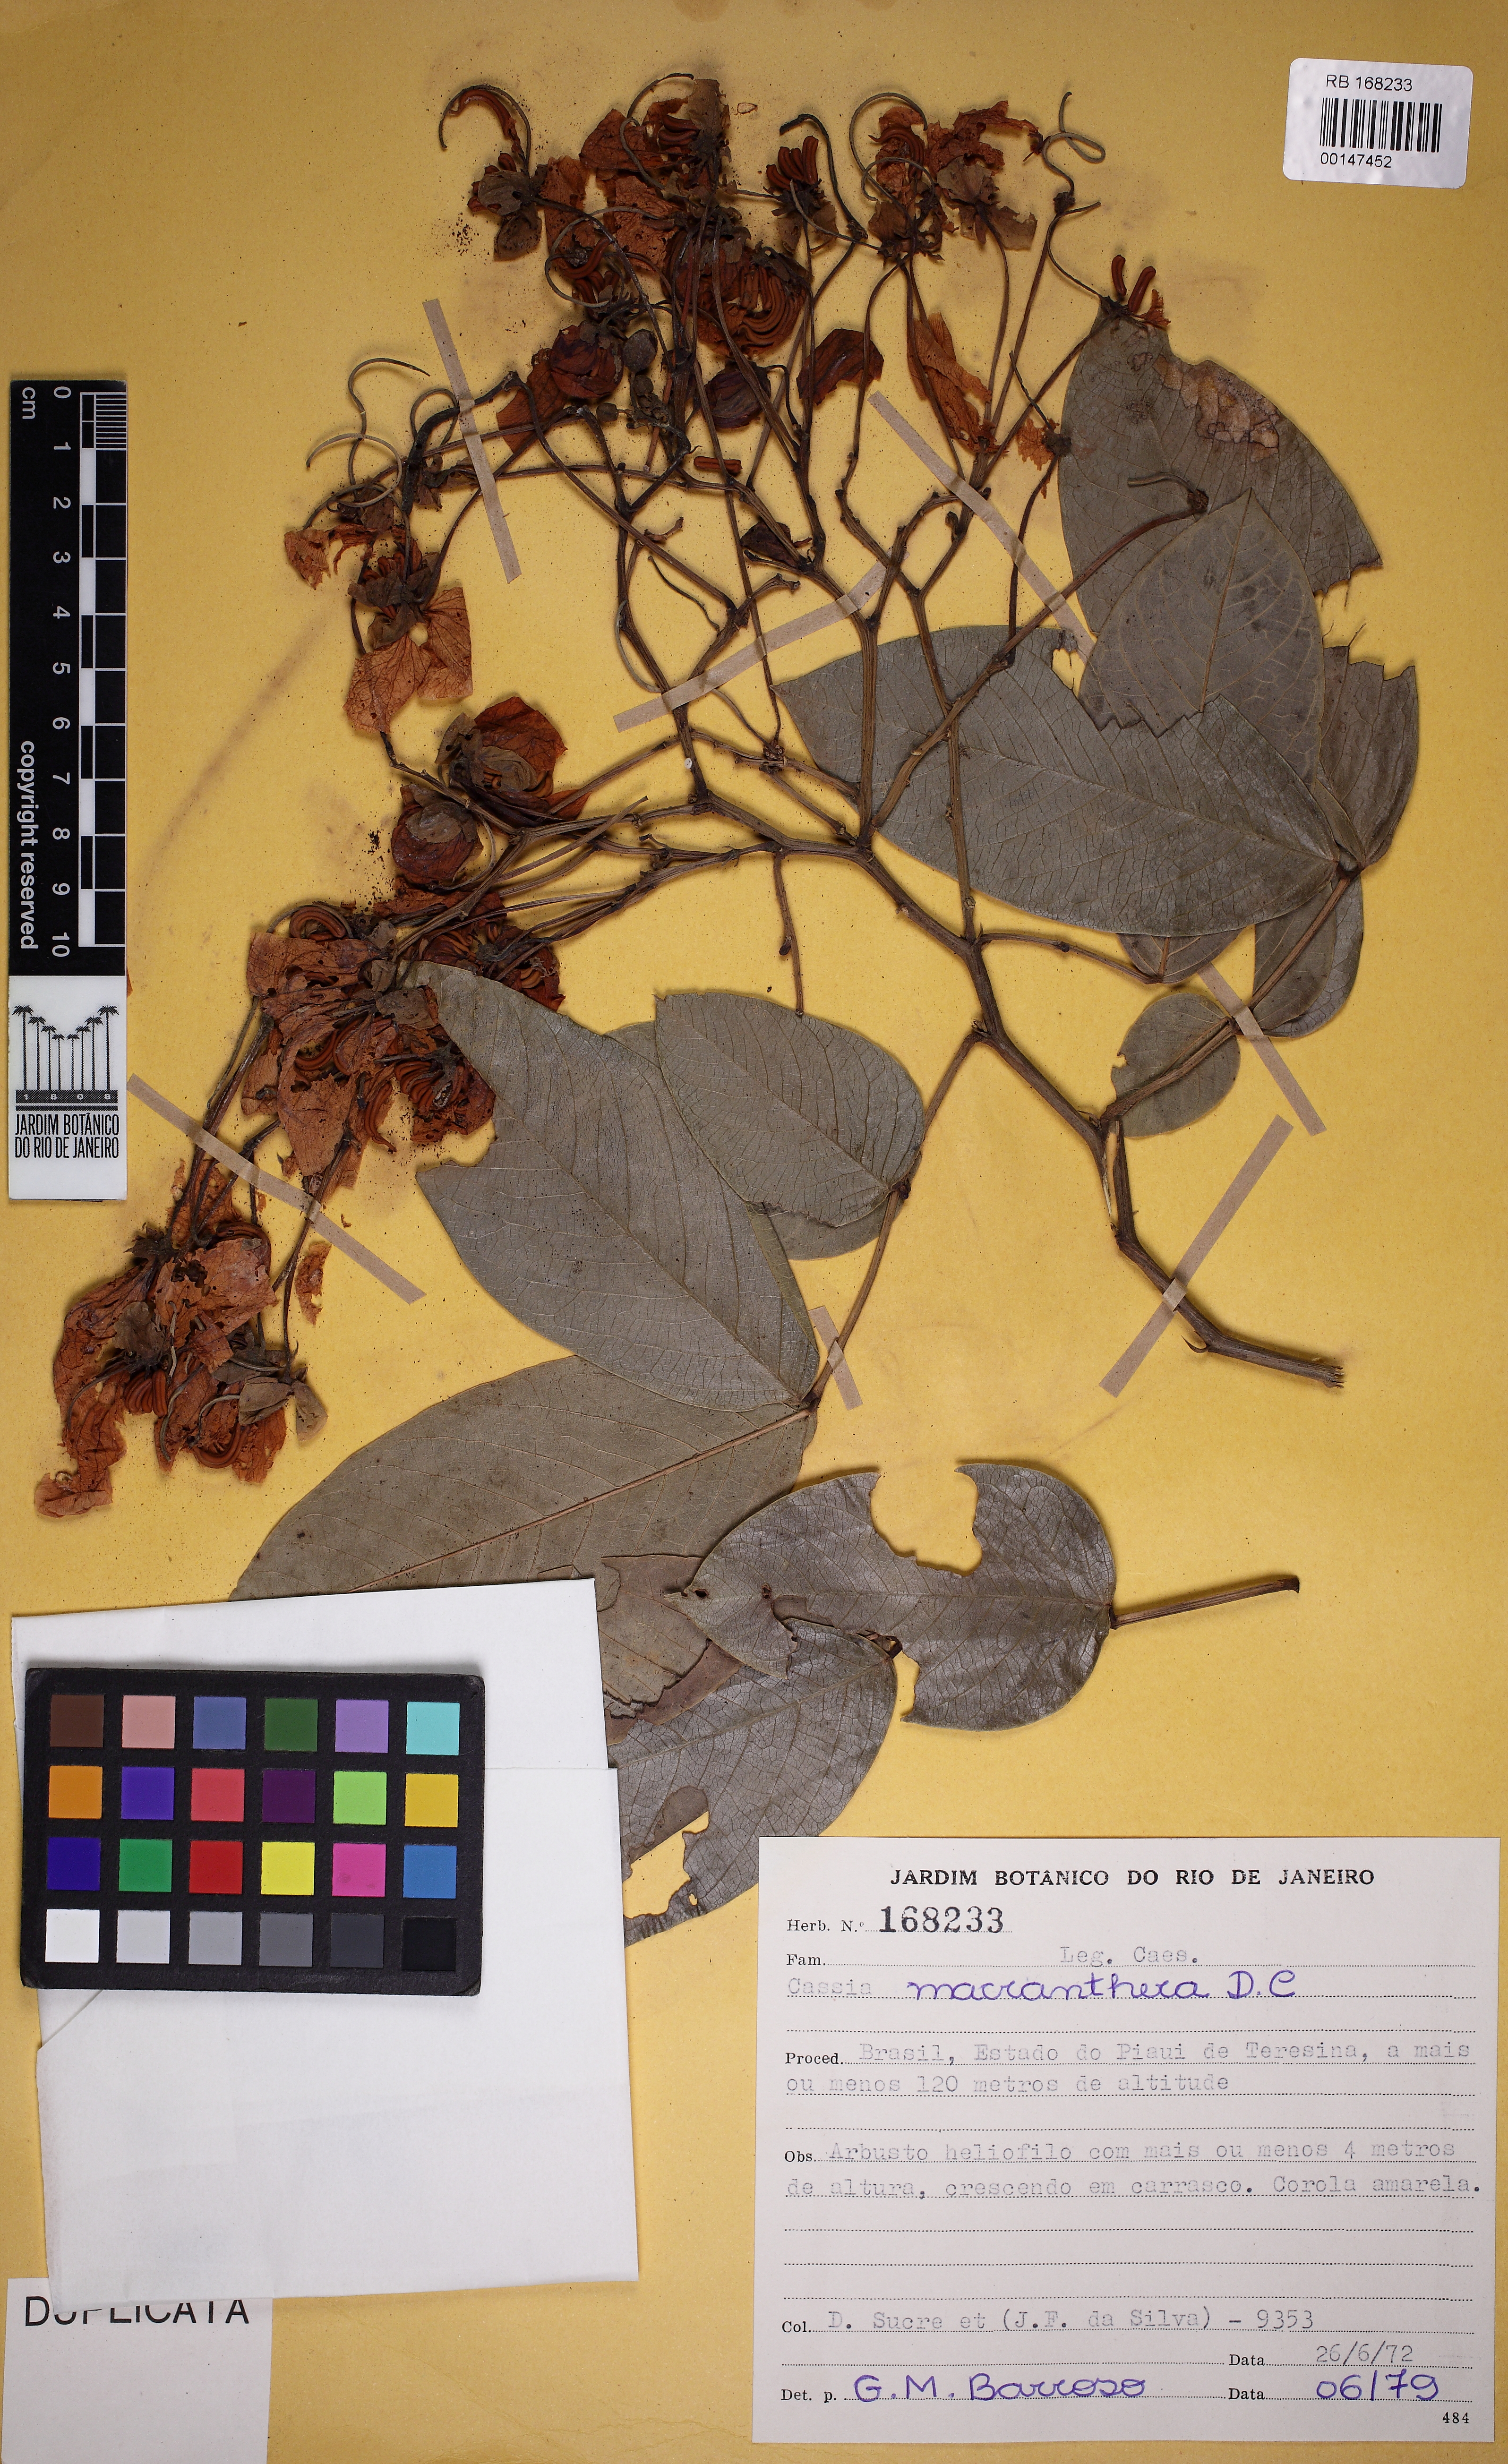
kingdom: Plantae
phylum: Tracheophyta
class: Magnoliopsida
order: Fabales
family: Fabaceae
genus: Senna
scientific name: Senna macranthera
